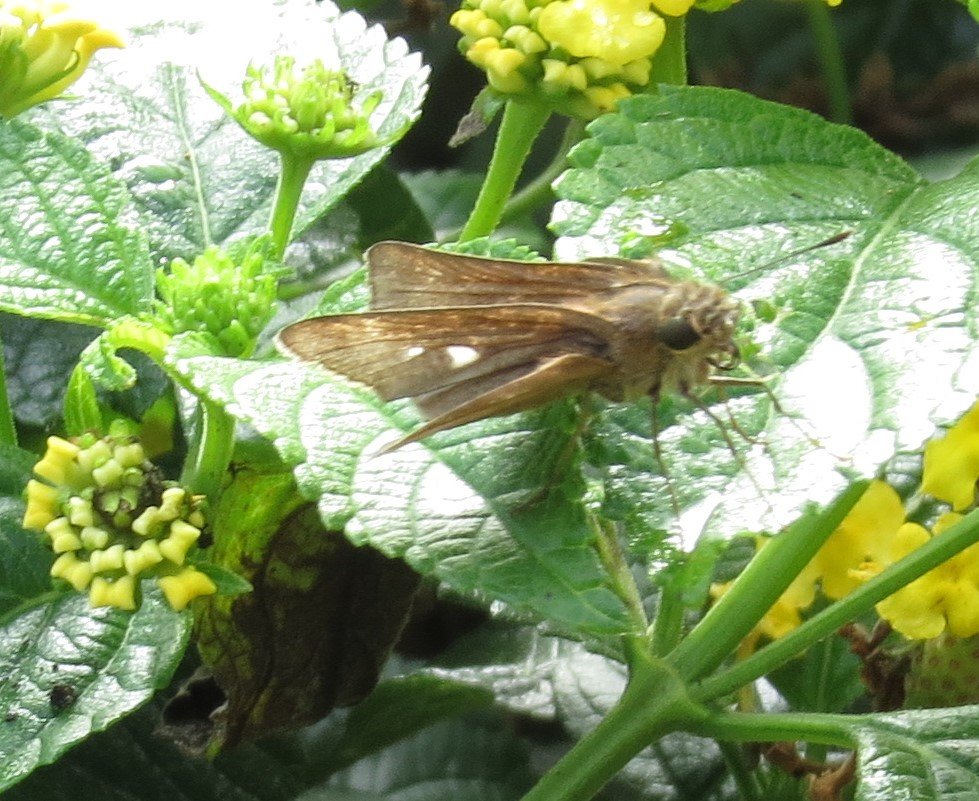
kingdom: Animalia
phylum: Arthropoda
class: Insecta
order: Lepidoptera
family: Hesperiidae
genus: Panoquina
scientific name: Panoquina ocola
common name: Ocola Skipper
